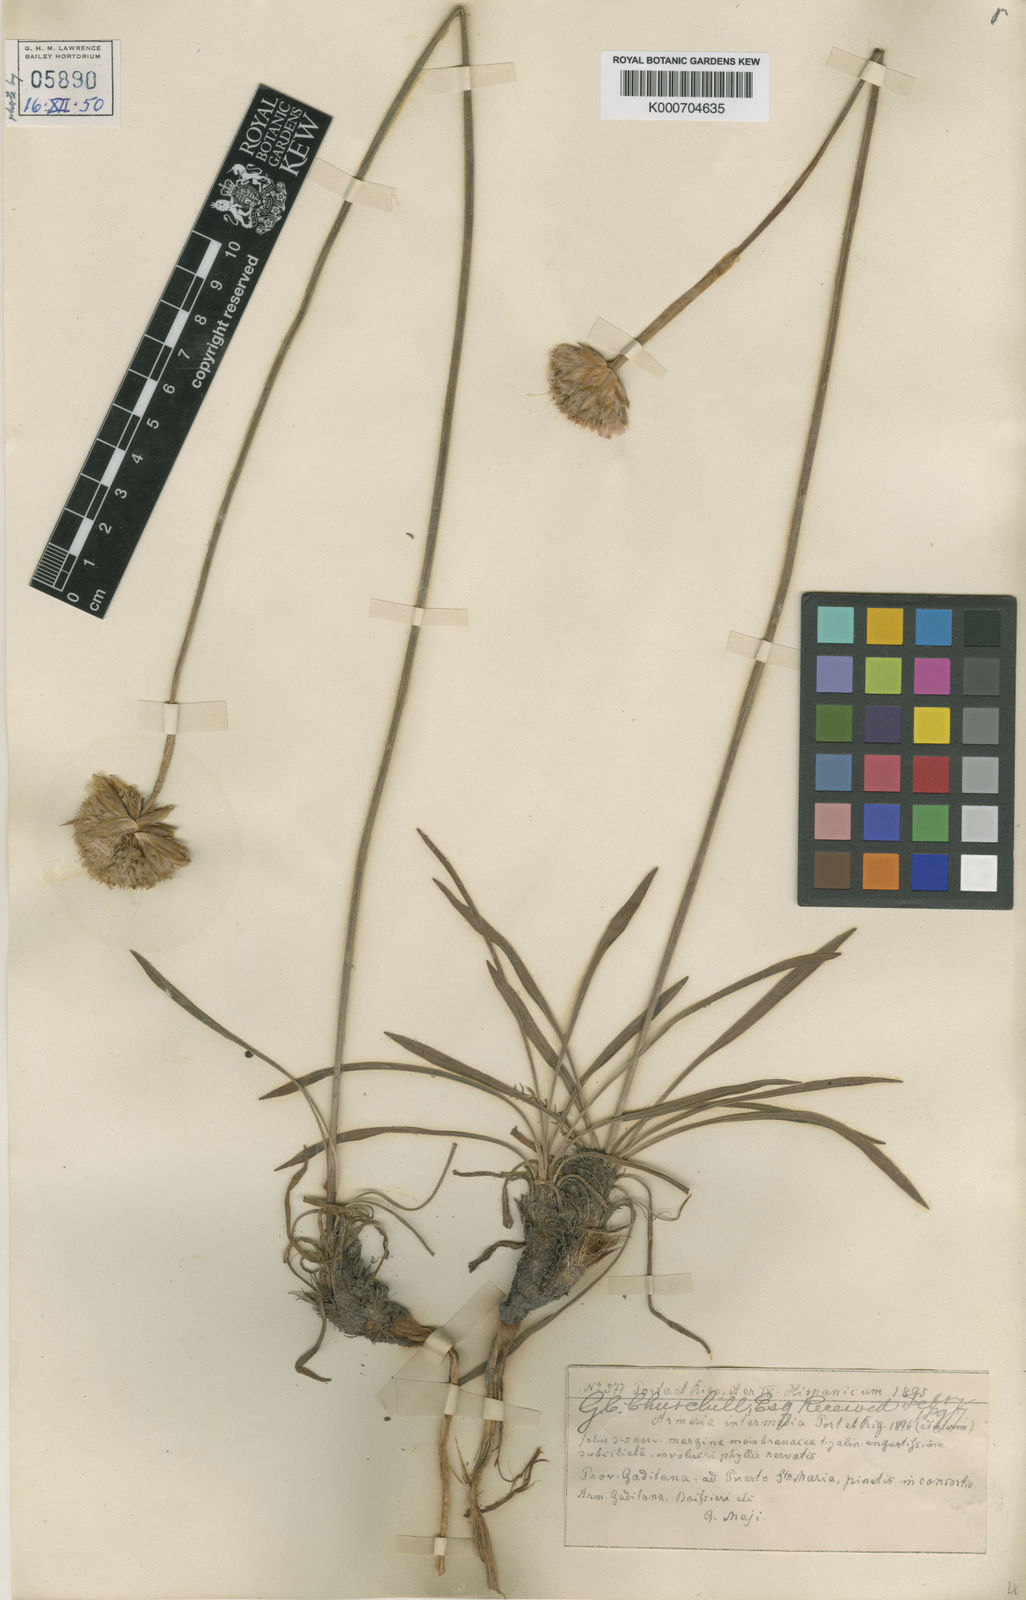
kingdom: Plantae
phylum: Tracheophyta
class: Magnoliopsida
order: Caryophyllales
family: Plumbaginaceae
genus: Armeria
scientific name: Armeria maritima
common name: Thrift
